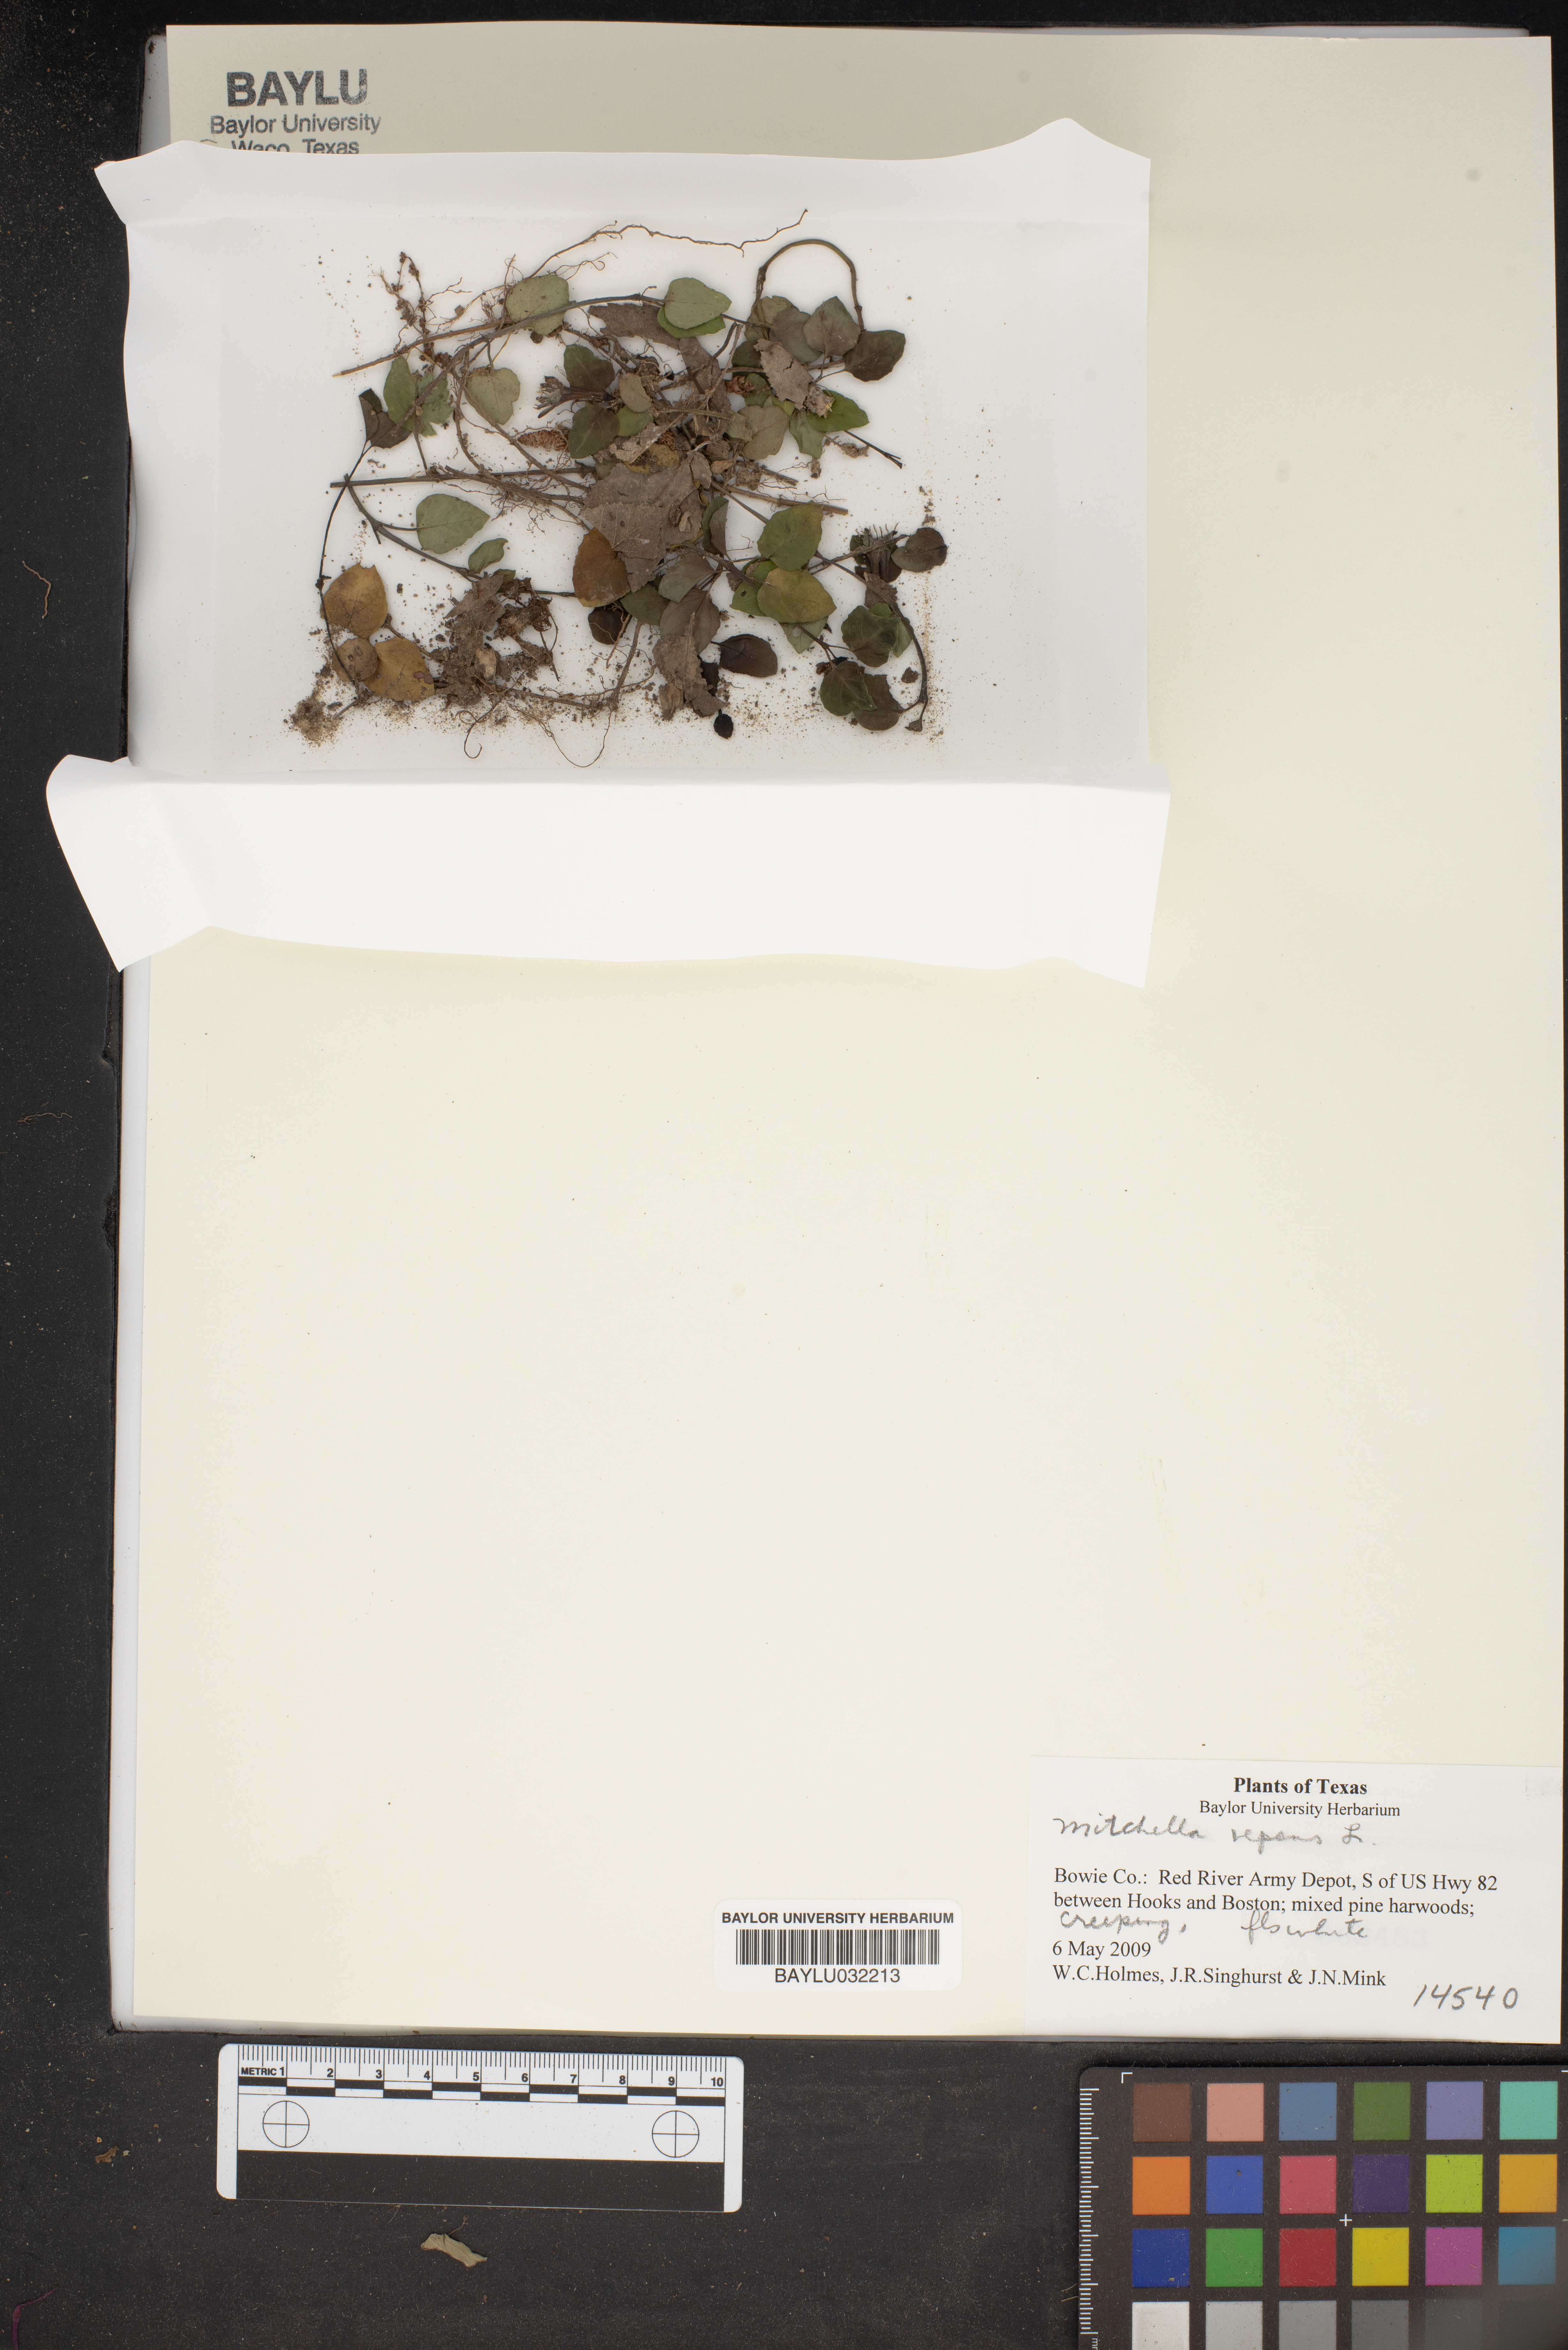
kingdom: Plantae
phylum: Tracheophyta
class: Magnoliopsida
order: Gentianales
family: Rubiaceae
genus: Mitchella
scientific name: Mitchella repens
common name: Partridge-berry
